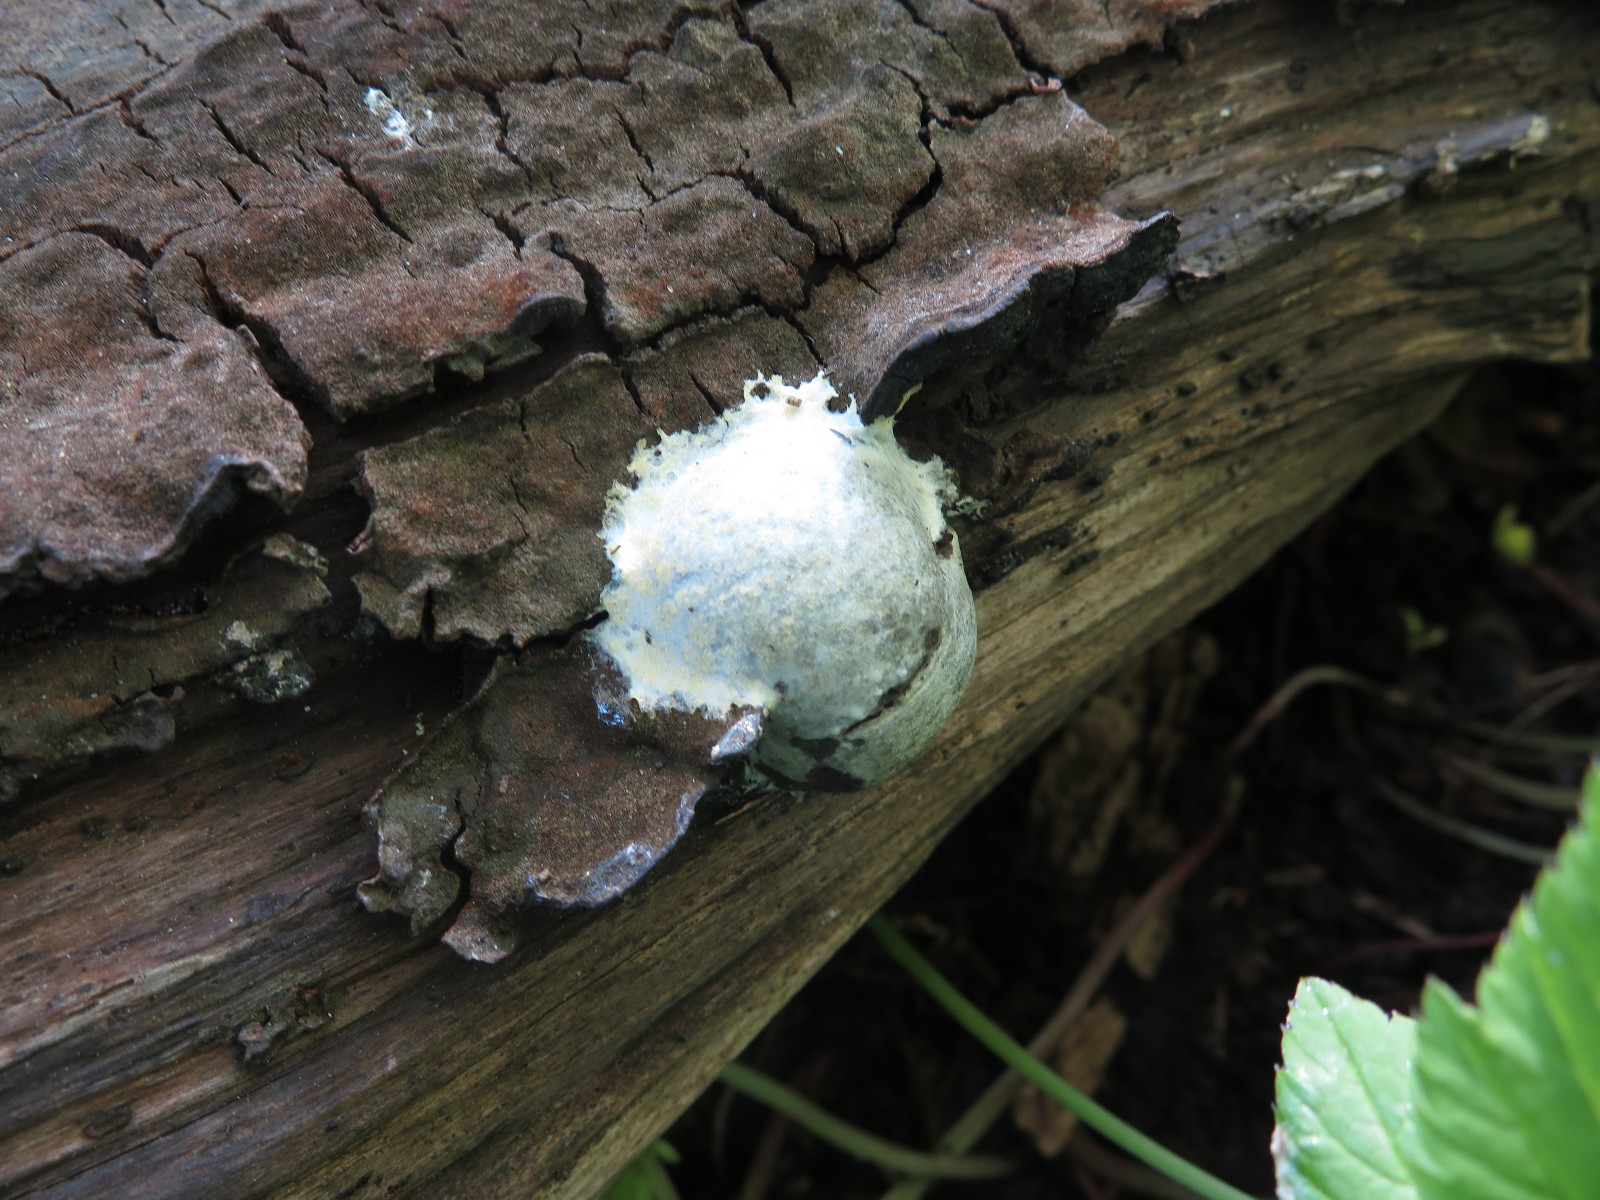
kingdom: Protozoa
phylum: Mycetozoa
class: Myxomycetes
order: Cribrariales
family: Tubiferaceae
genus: Reticularia
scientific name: Reticularia lycoperdon
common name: skinnende støvpude
